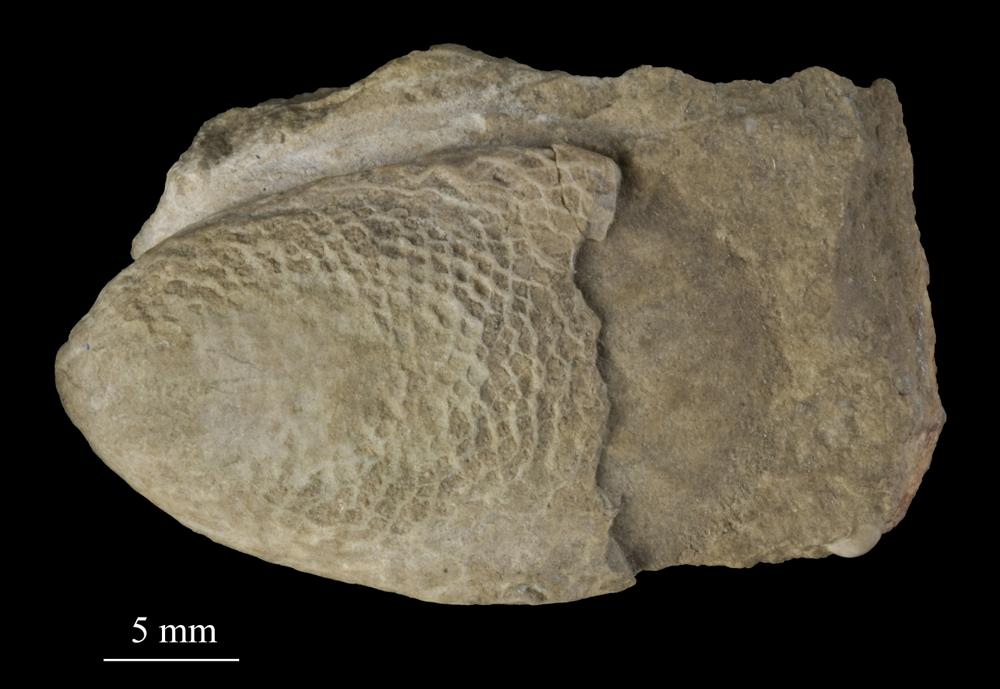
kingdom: Animalia
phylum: Mollusca
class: Monoplacophora
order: Tryblidiida
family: Tryblidiidae
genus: Tryblidium
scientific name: Tryblidium
